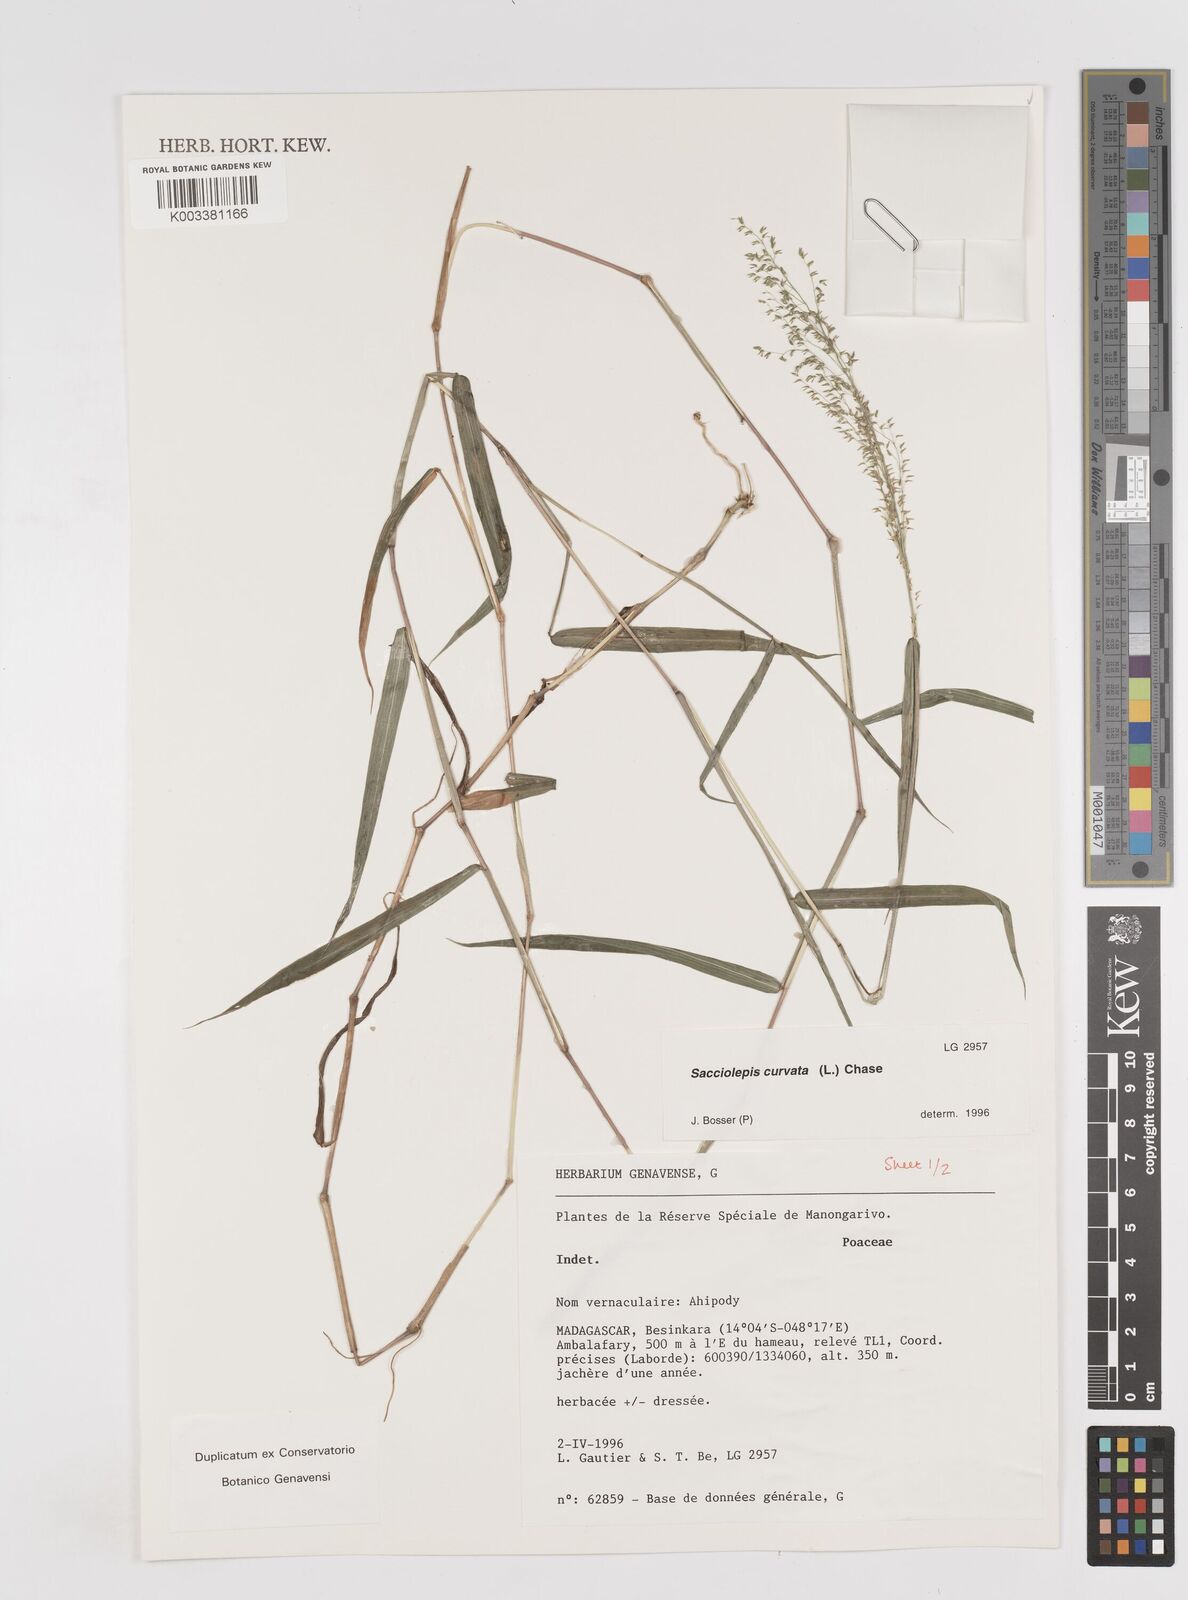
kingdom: Plantae
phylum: Tracheophyta
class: Liliopsida
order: Poales
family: Poaceae
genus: Sacciolepis
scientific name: Sacciolepis curvata
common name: Forest hood grass
